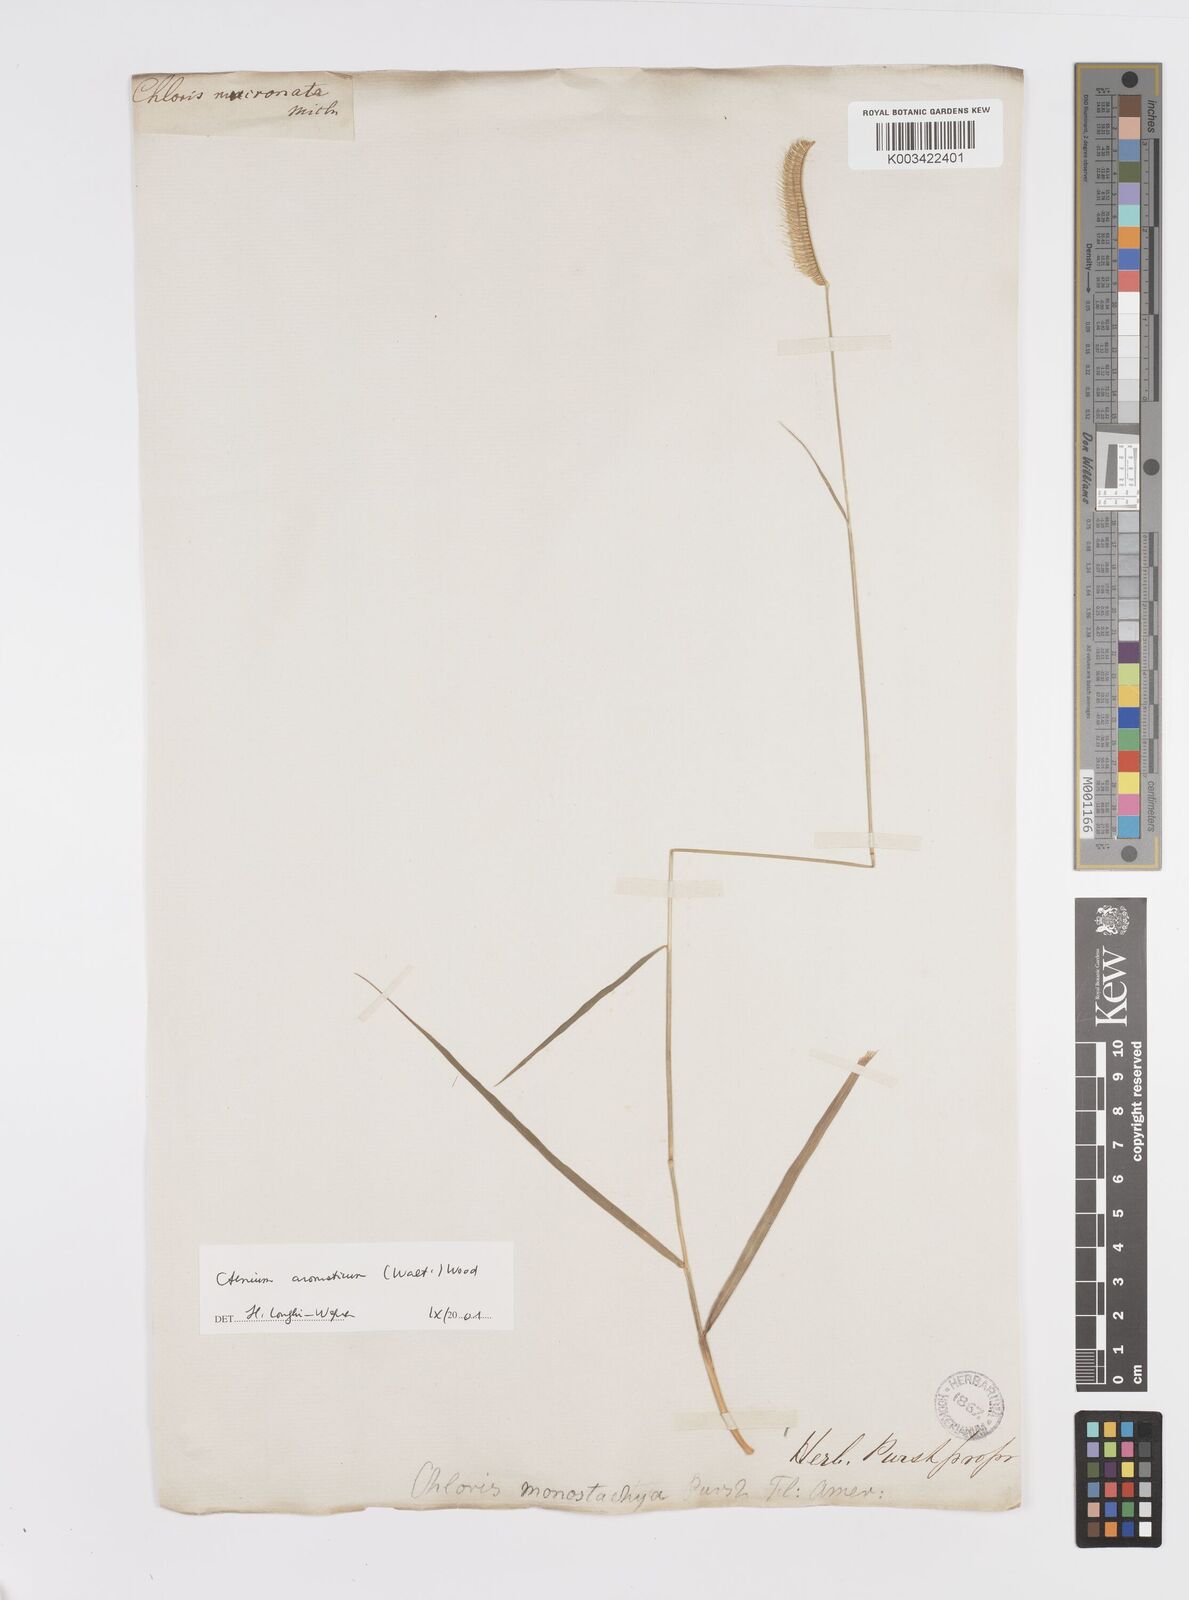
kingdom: Plantae
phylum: Tracheophyta
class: Liliopsida
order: Poales
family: Poaceae
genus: Ctenium
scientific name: Ctenium aromaticum
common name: Toothache grass
